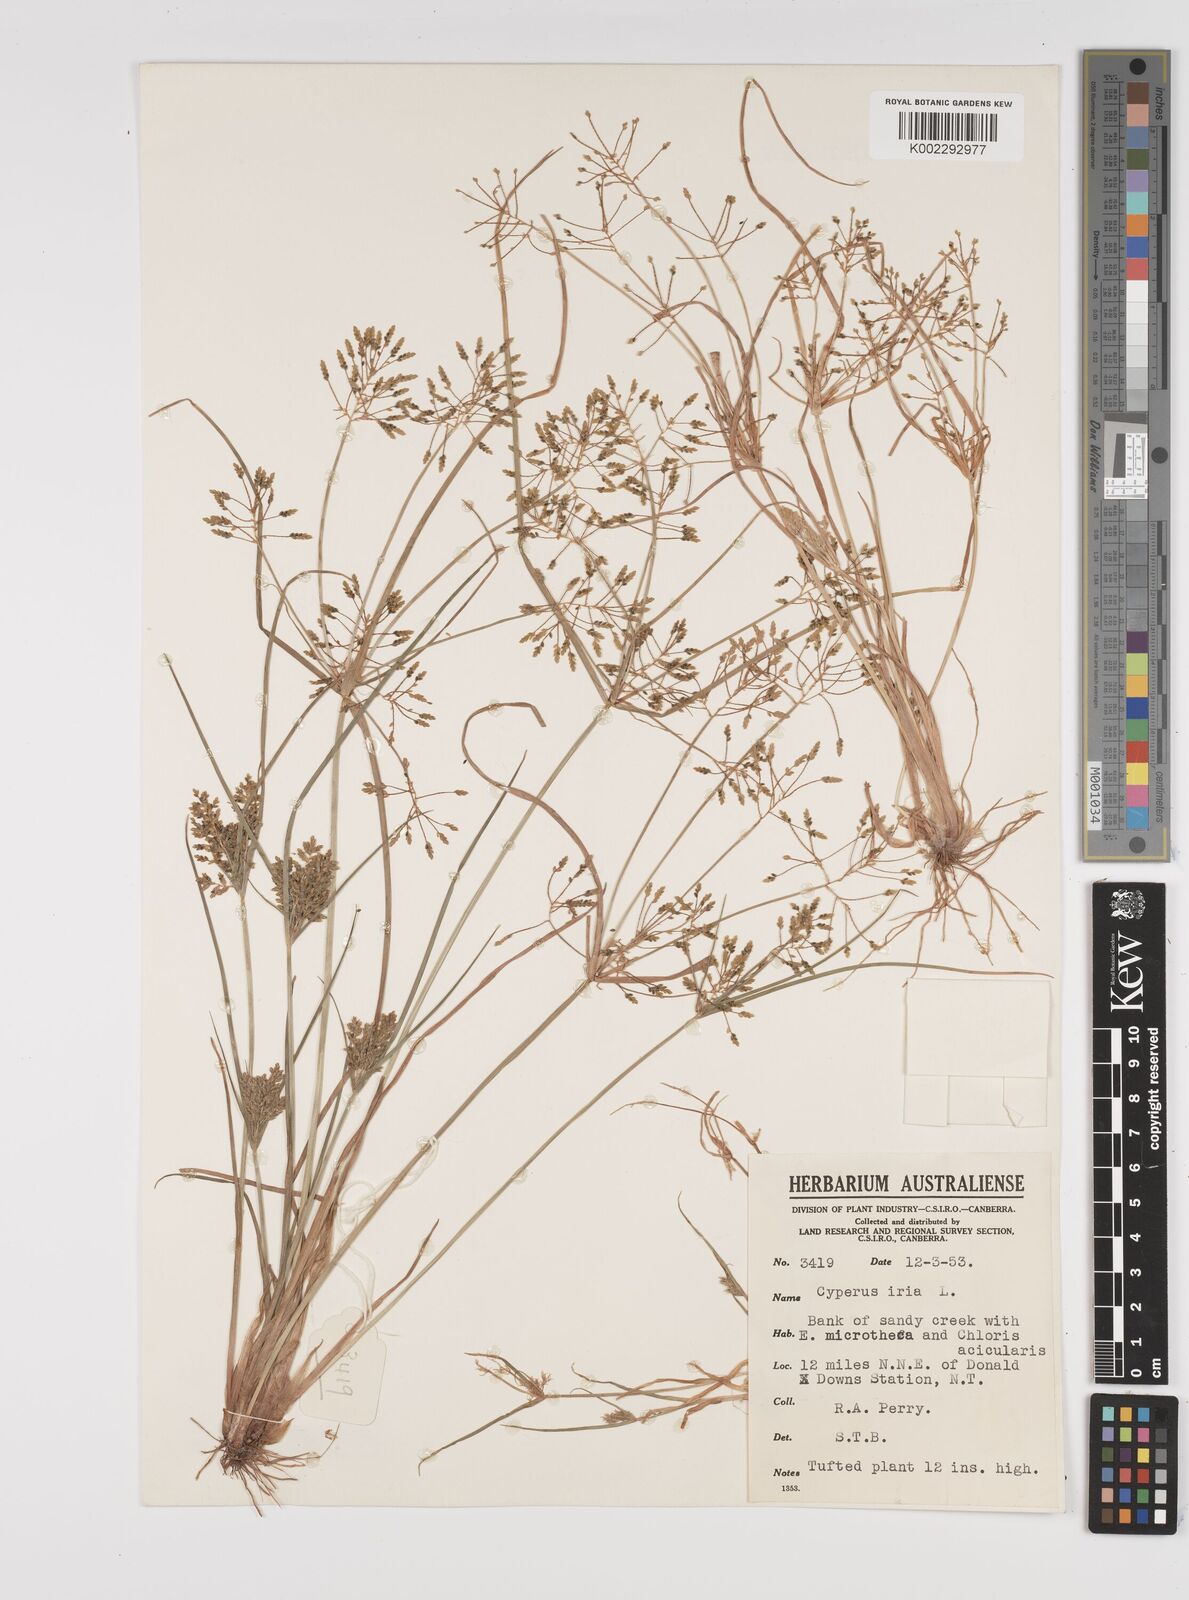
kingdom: Plantae
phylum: Tracheophyta
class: Liliopsida
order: Poales
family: Cyperaceae
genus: Cyperus
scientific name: Cyperus iria
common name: Ricefield flatsedge
